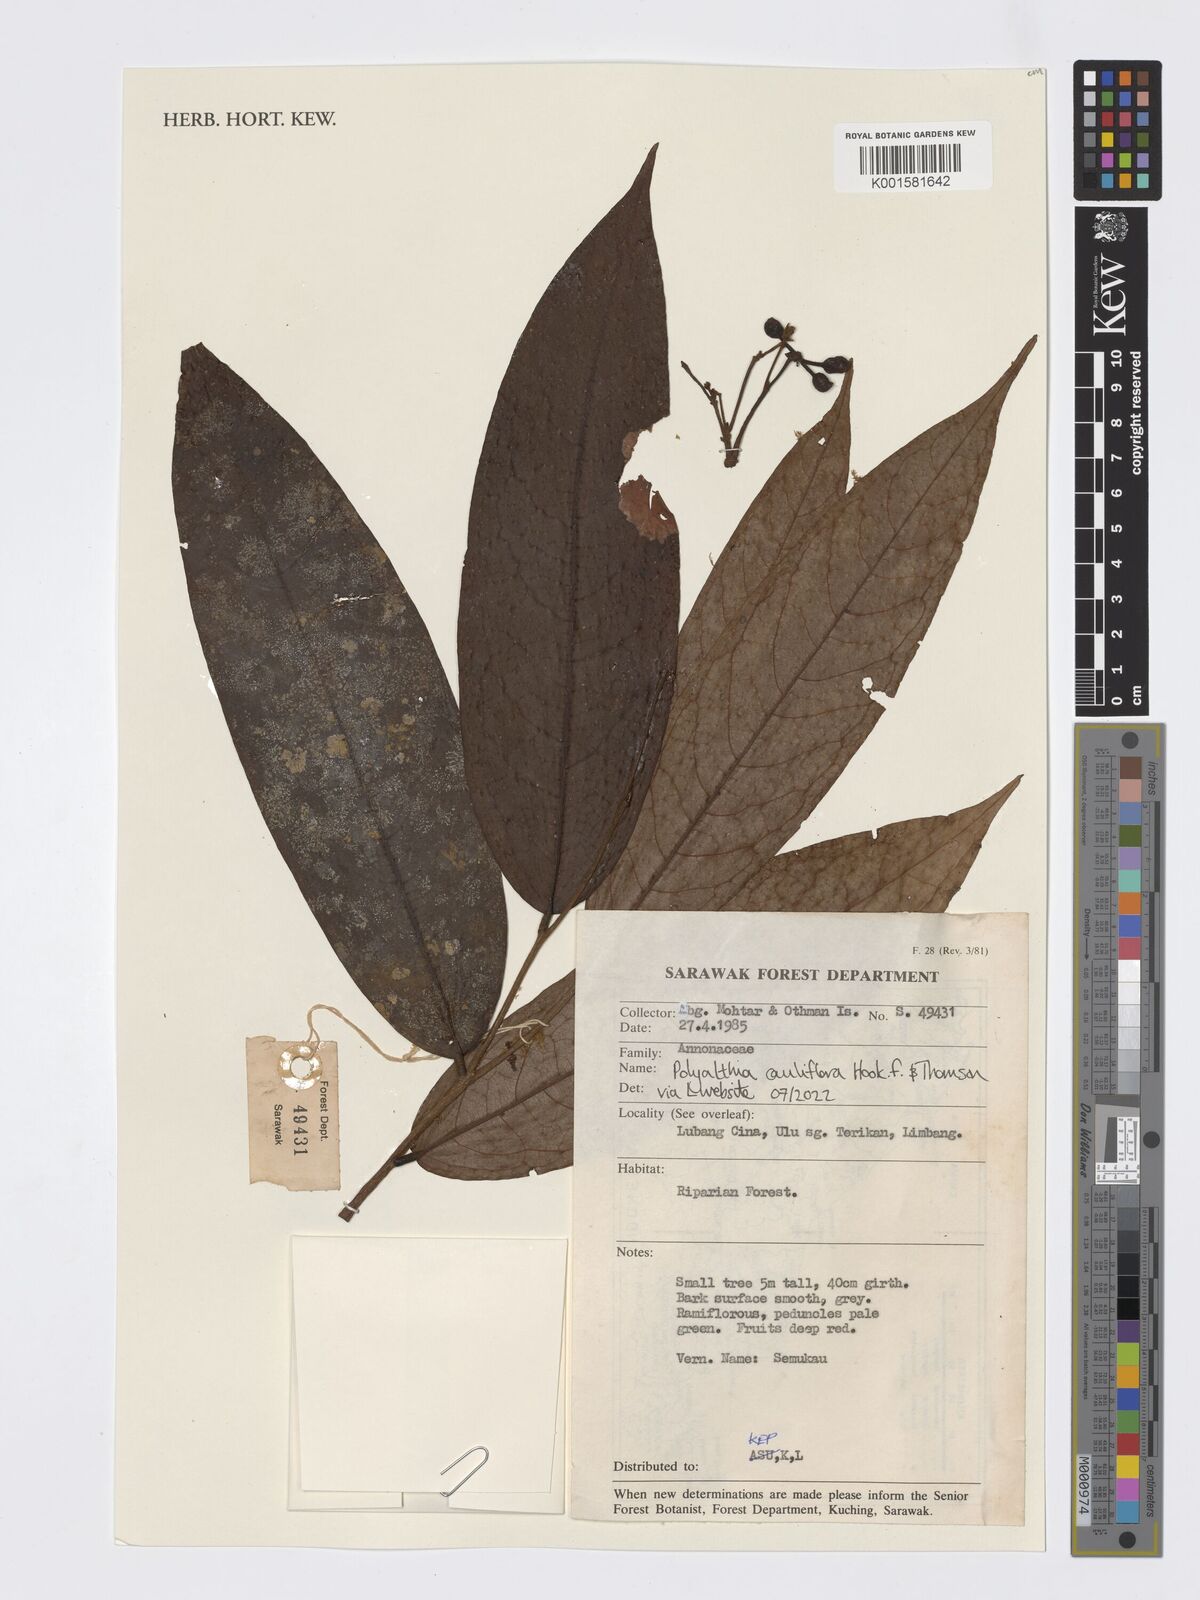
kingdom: Plantae
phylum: Tracheophyta
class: Magnoliopsida
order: Magnoliales
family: Annonaceae
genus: Polyalthia
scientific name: Polyalthia cauliflora
